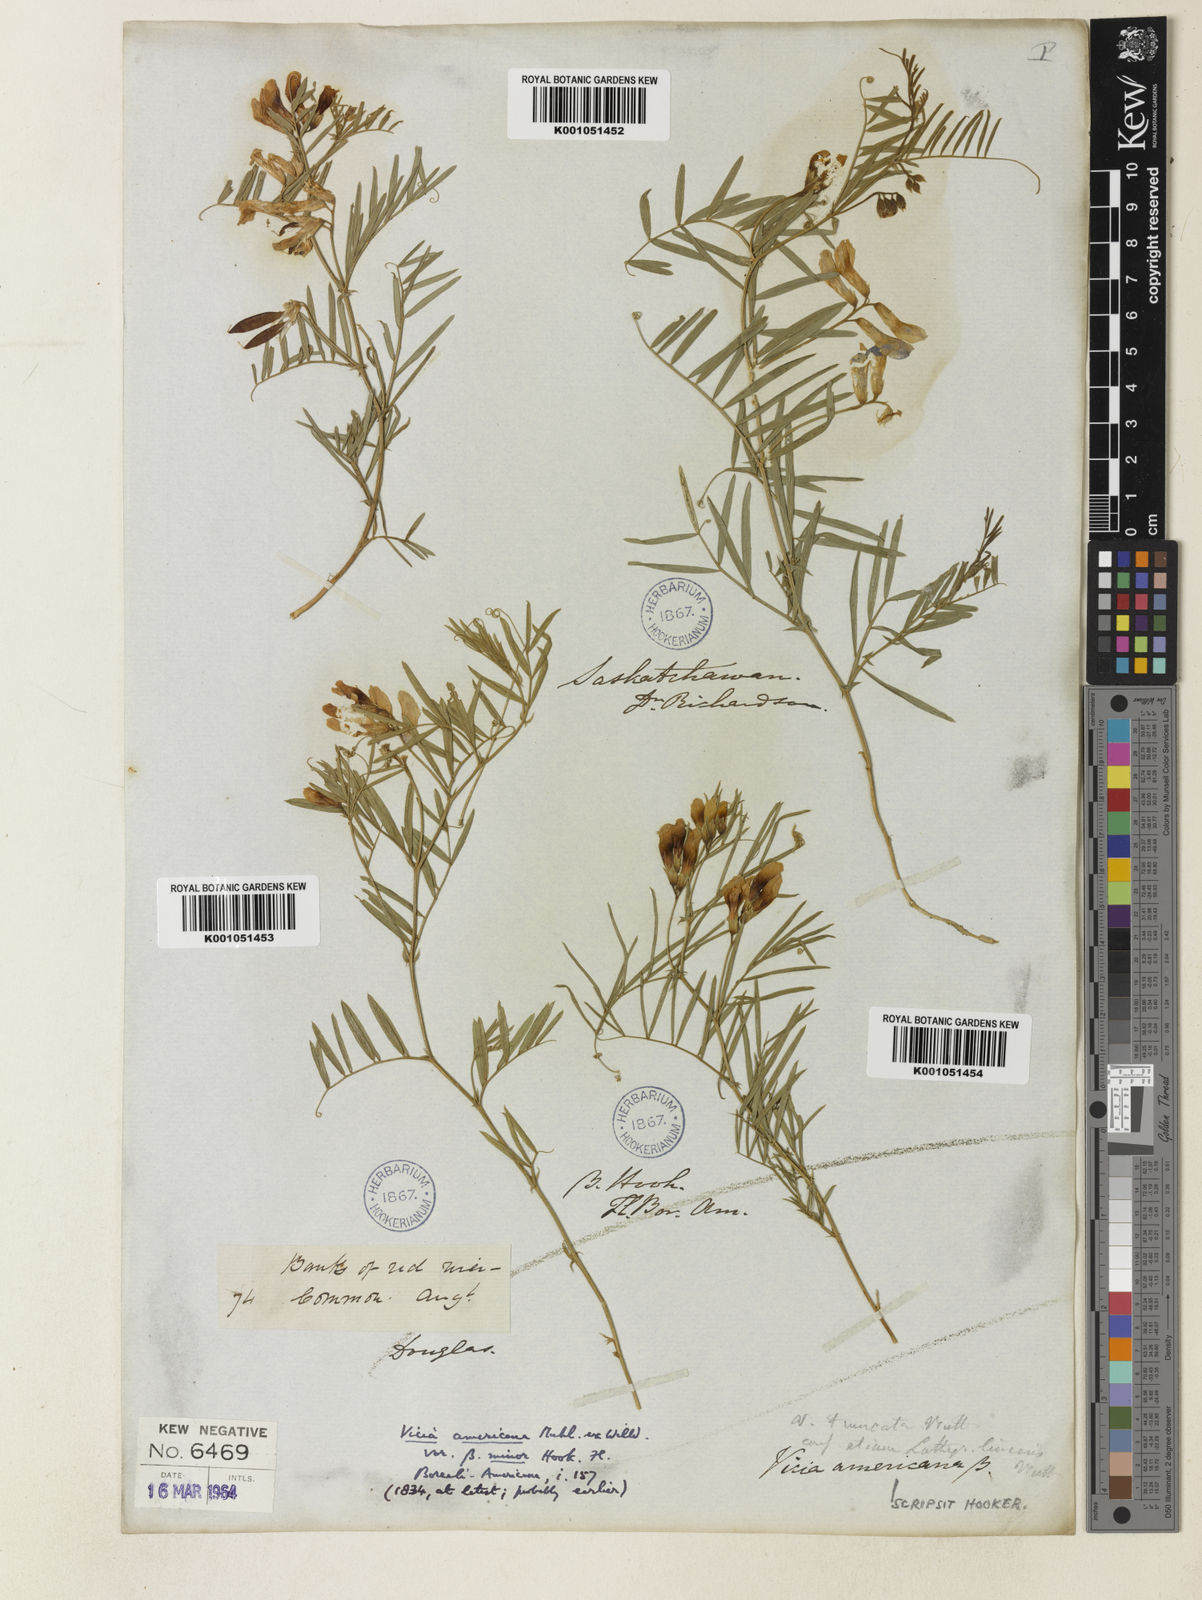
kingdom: Plantae
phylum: Tracheophyta
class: Magnoliopsida
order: Fabales
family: Fabaceae
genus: Vicia
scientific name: Vicia americana
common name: American vetch
